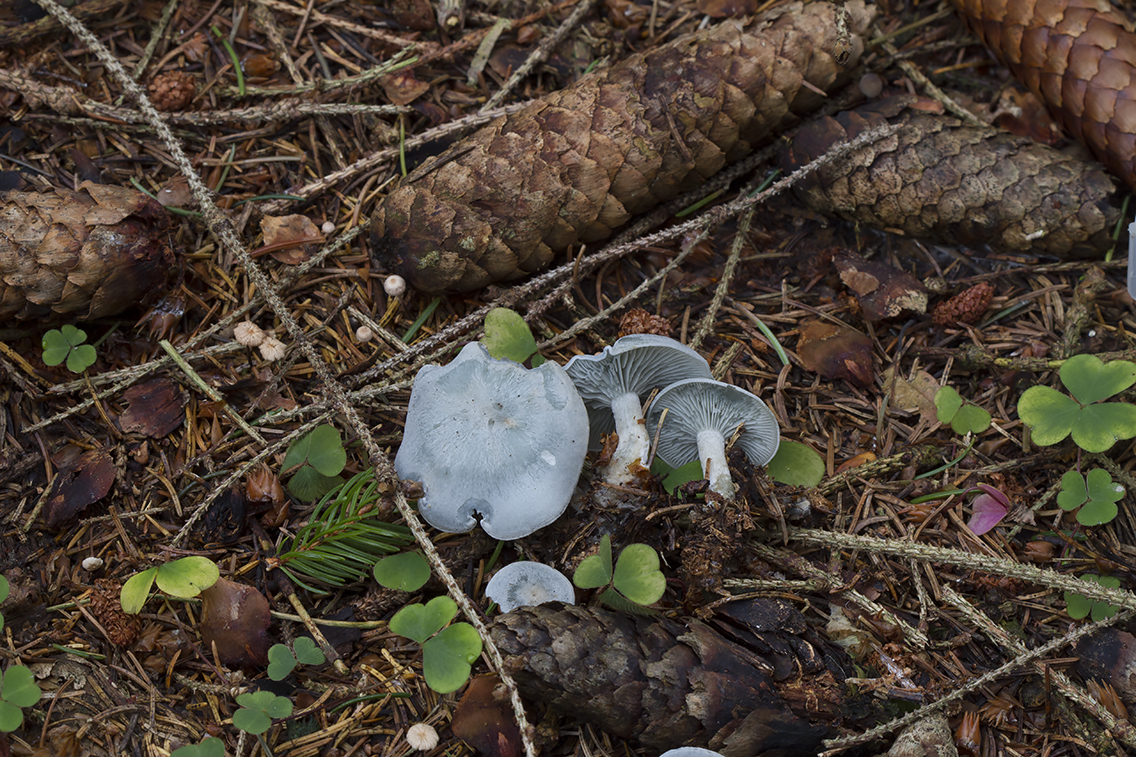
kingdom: Fungi
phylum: Basidiomycota
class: Agaricomycetes
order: Agaricales
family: Tricholomataceae
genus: Clitocybe
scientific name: Clitocybe odora
